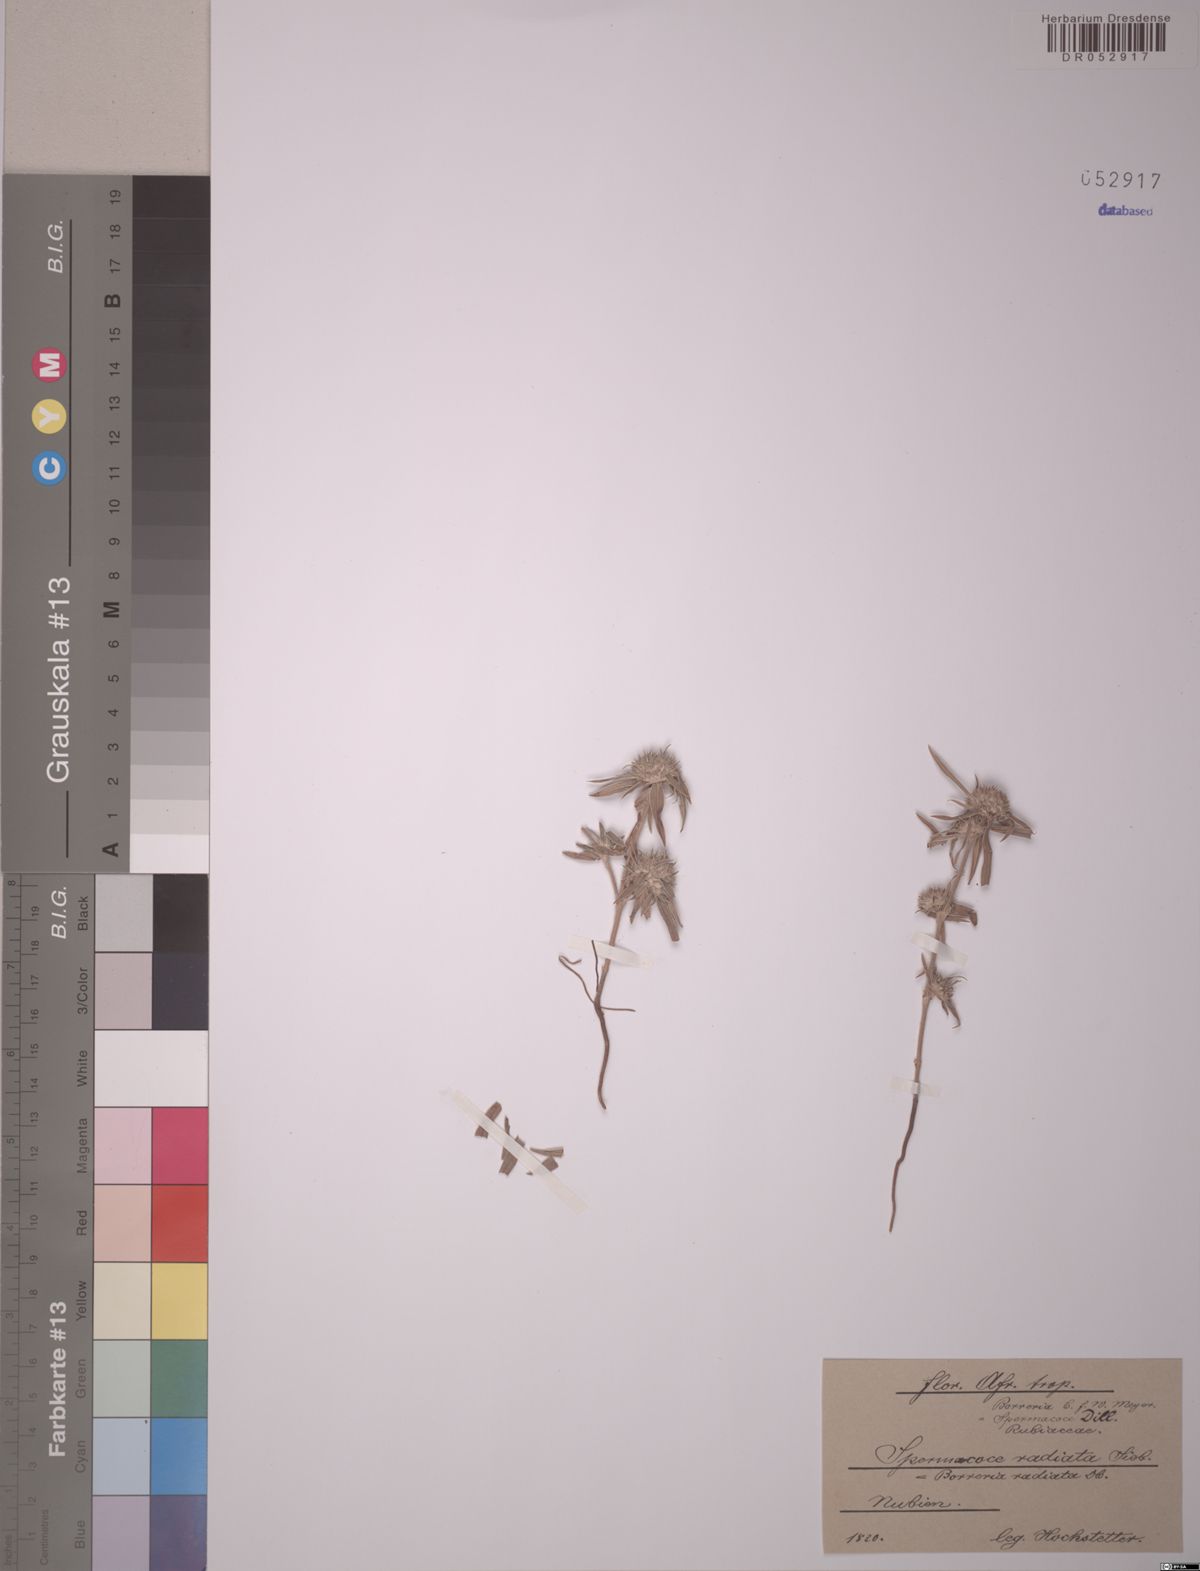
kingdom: Plantae
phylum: Tracheophyta
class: Magnoliopsida
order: Gentianales
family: Rubiaceae
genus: Spermacoce
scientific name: Spermacoce radiata
